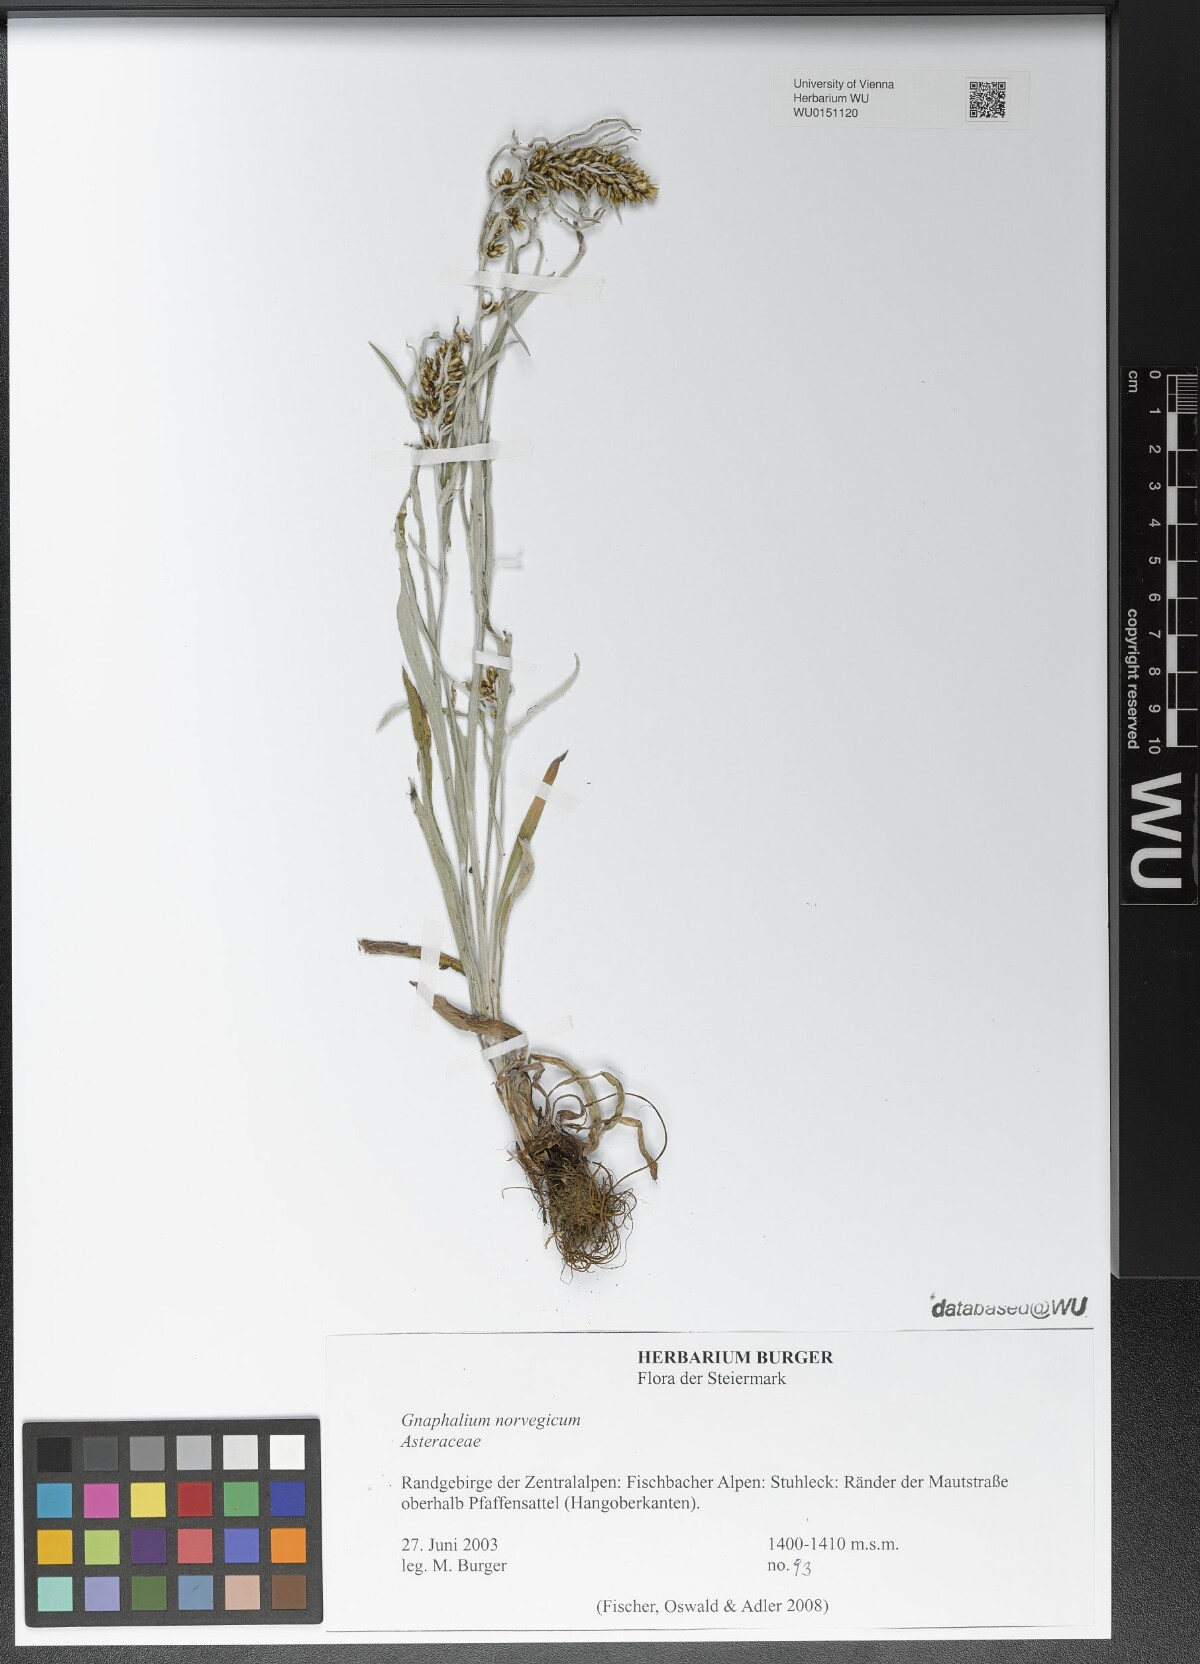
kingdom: Plantae
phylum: Tracheophyta
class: Magnoliopsida
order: Asterales
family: Asteraceae
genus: Omalotheca
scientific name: Omalotheca norvegica
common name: Norwegian arctic-cudweed
